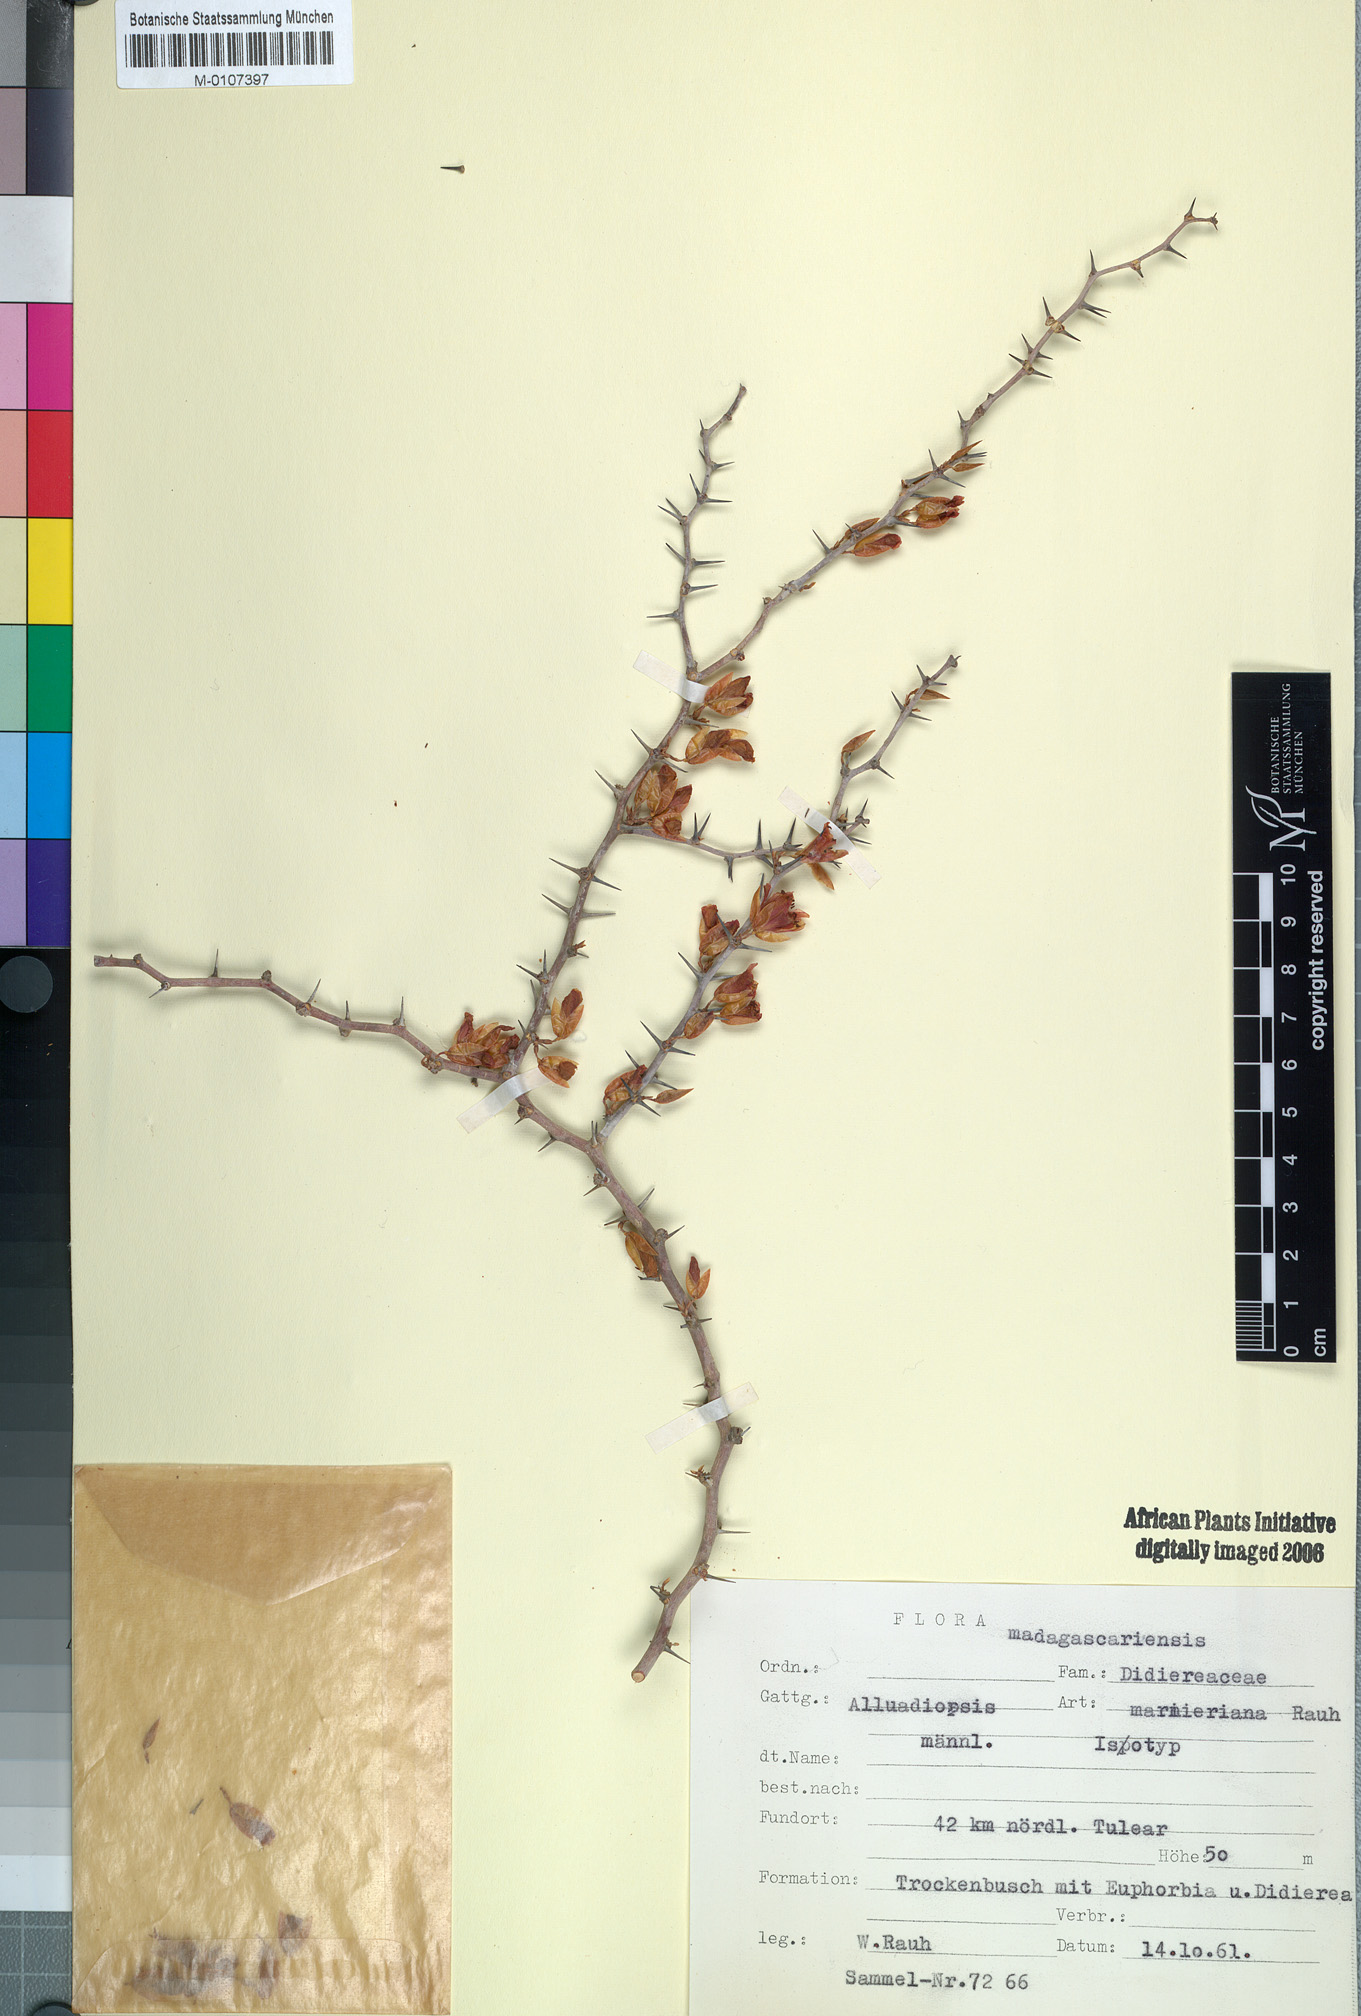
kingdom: Plantae
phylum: Tracheophyta
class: Magnoliopsida
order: Caryophyllales
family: Didiereaceae
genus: Alluaudiopsis
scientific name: Alluaudiopsis marnieriana
